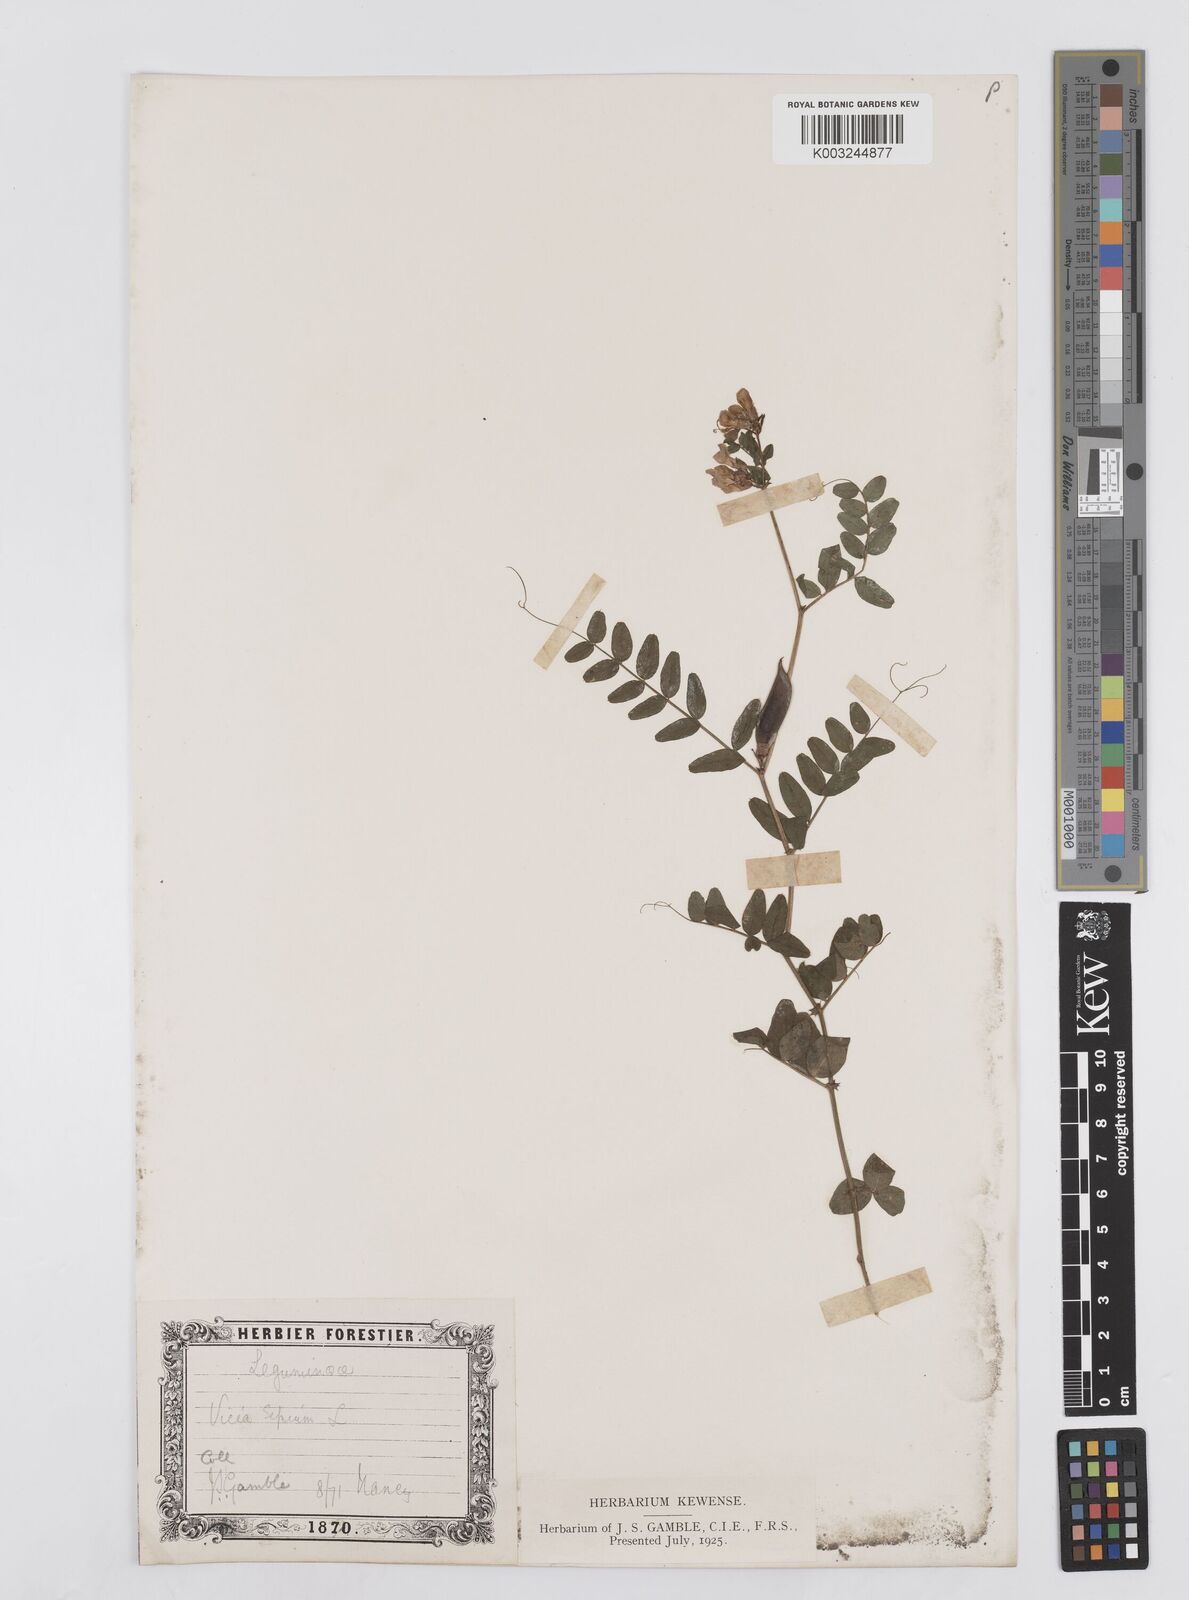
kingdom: Plantae
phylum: Tracheophyta
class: Magnoliopsida
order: Fabales
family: Fabaceae
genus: Vicia
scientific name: Vicia sepium
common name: Bush vetch
